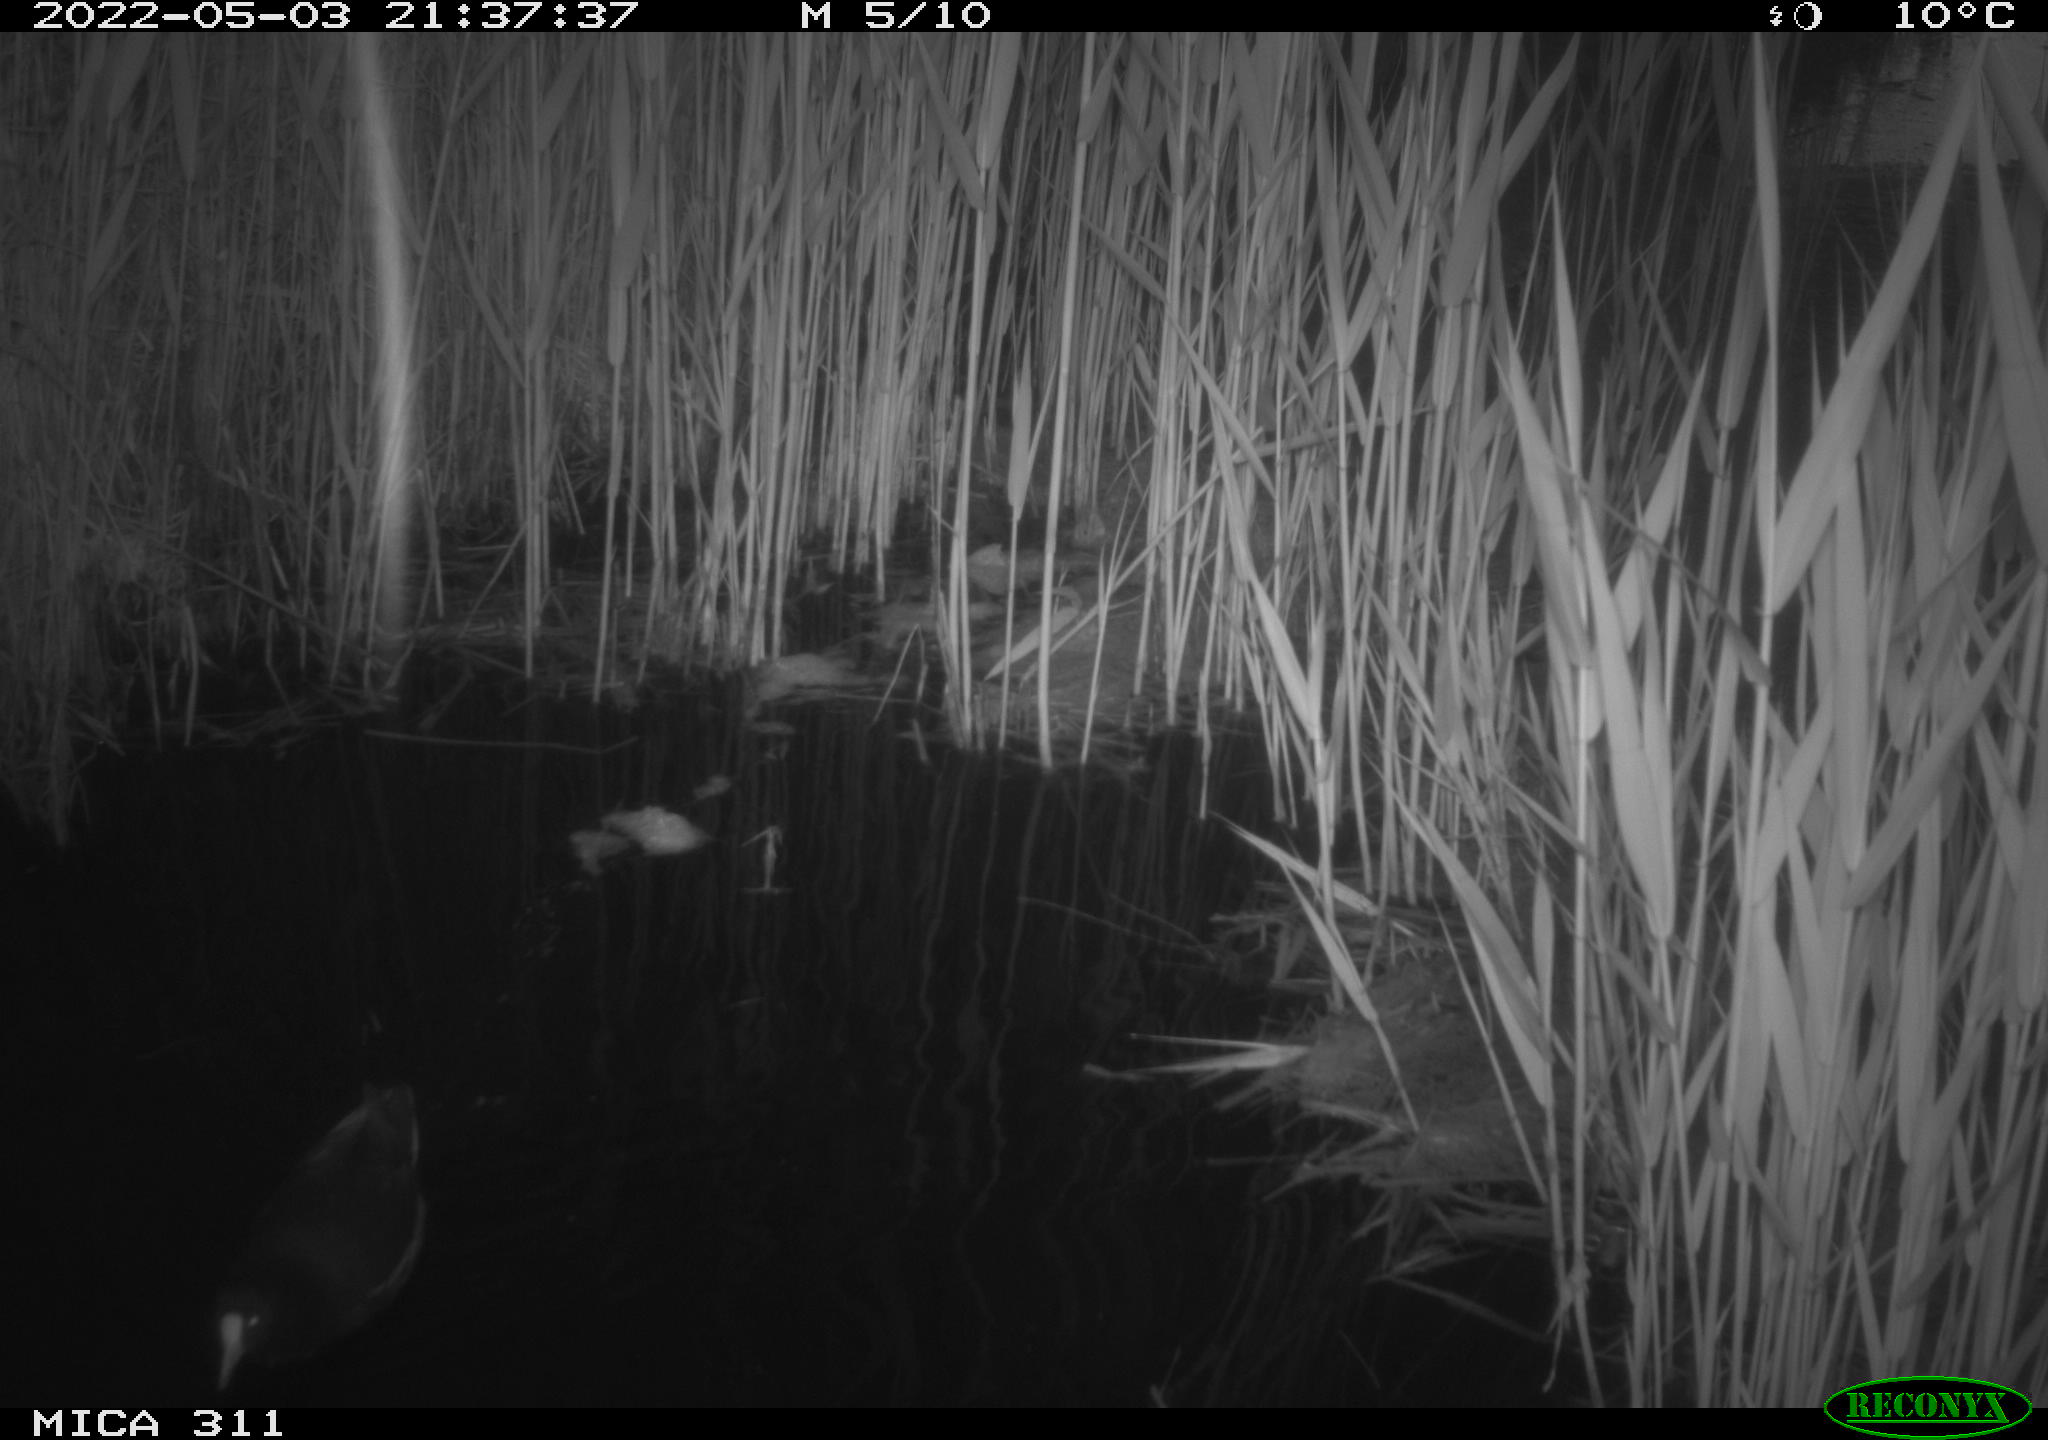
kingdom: Animalia
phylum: Chordata
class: Aves
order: Gruiformes
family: Rallidae
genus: Gallinula
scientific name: Gallinula chloropus
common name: Common moorhen
